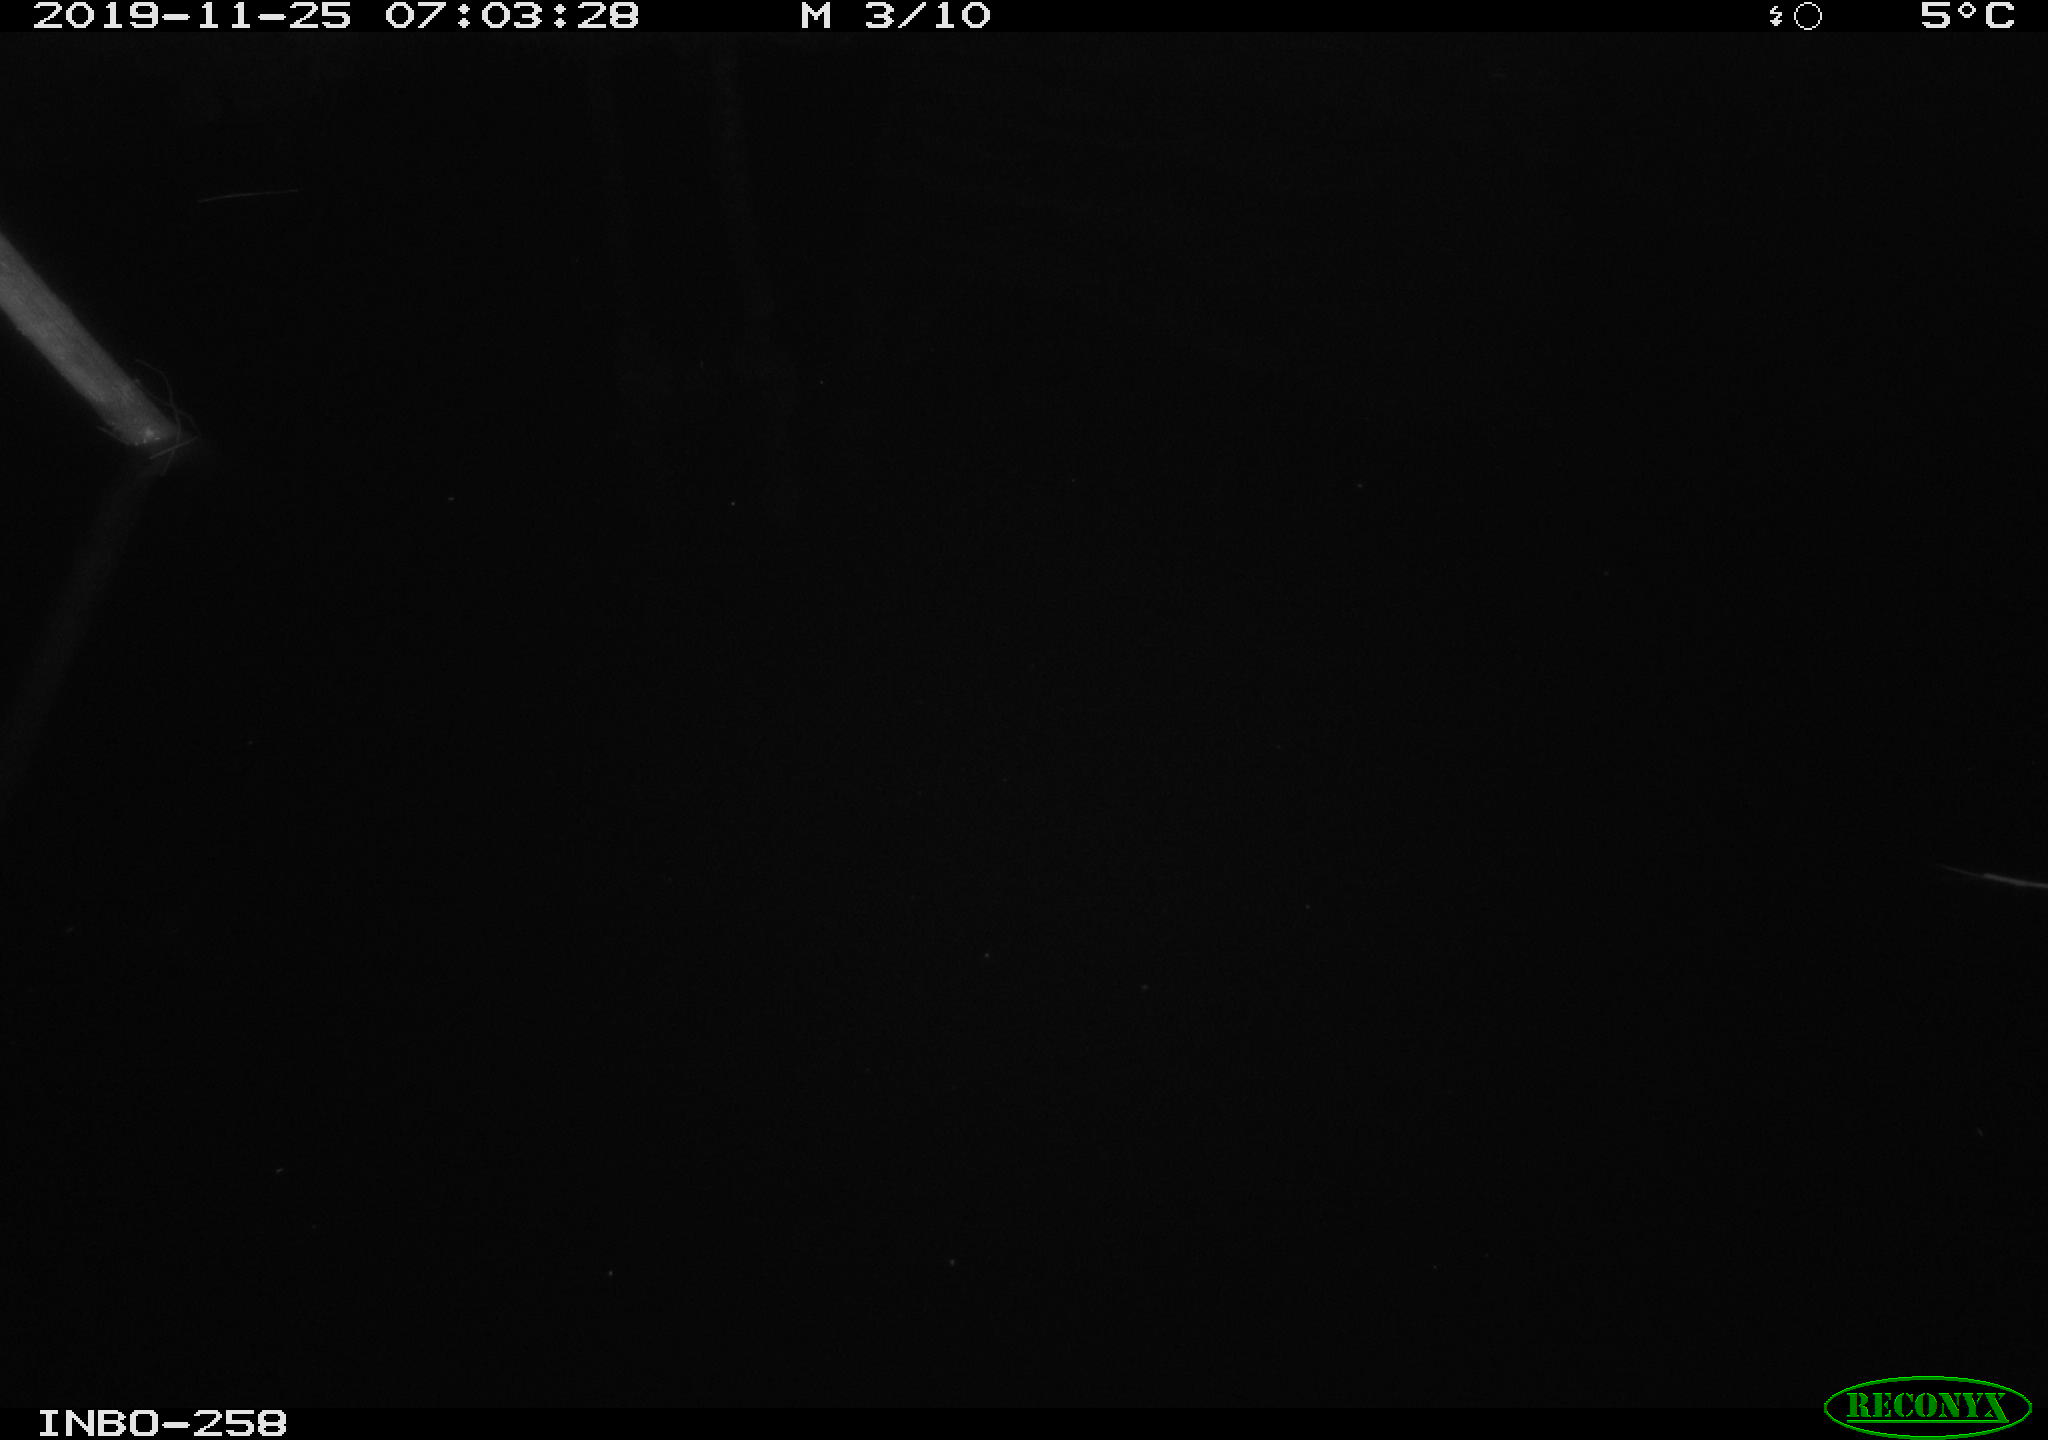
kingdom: Animalia
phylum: Chordata
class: Aves
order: Anseriformes
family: Anatidae
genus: Anas
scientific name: Anas platyrhynchos
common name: Mallard
